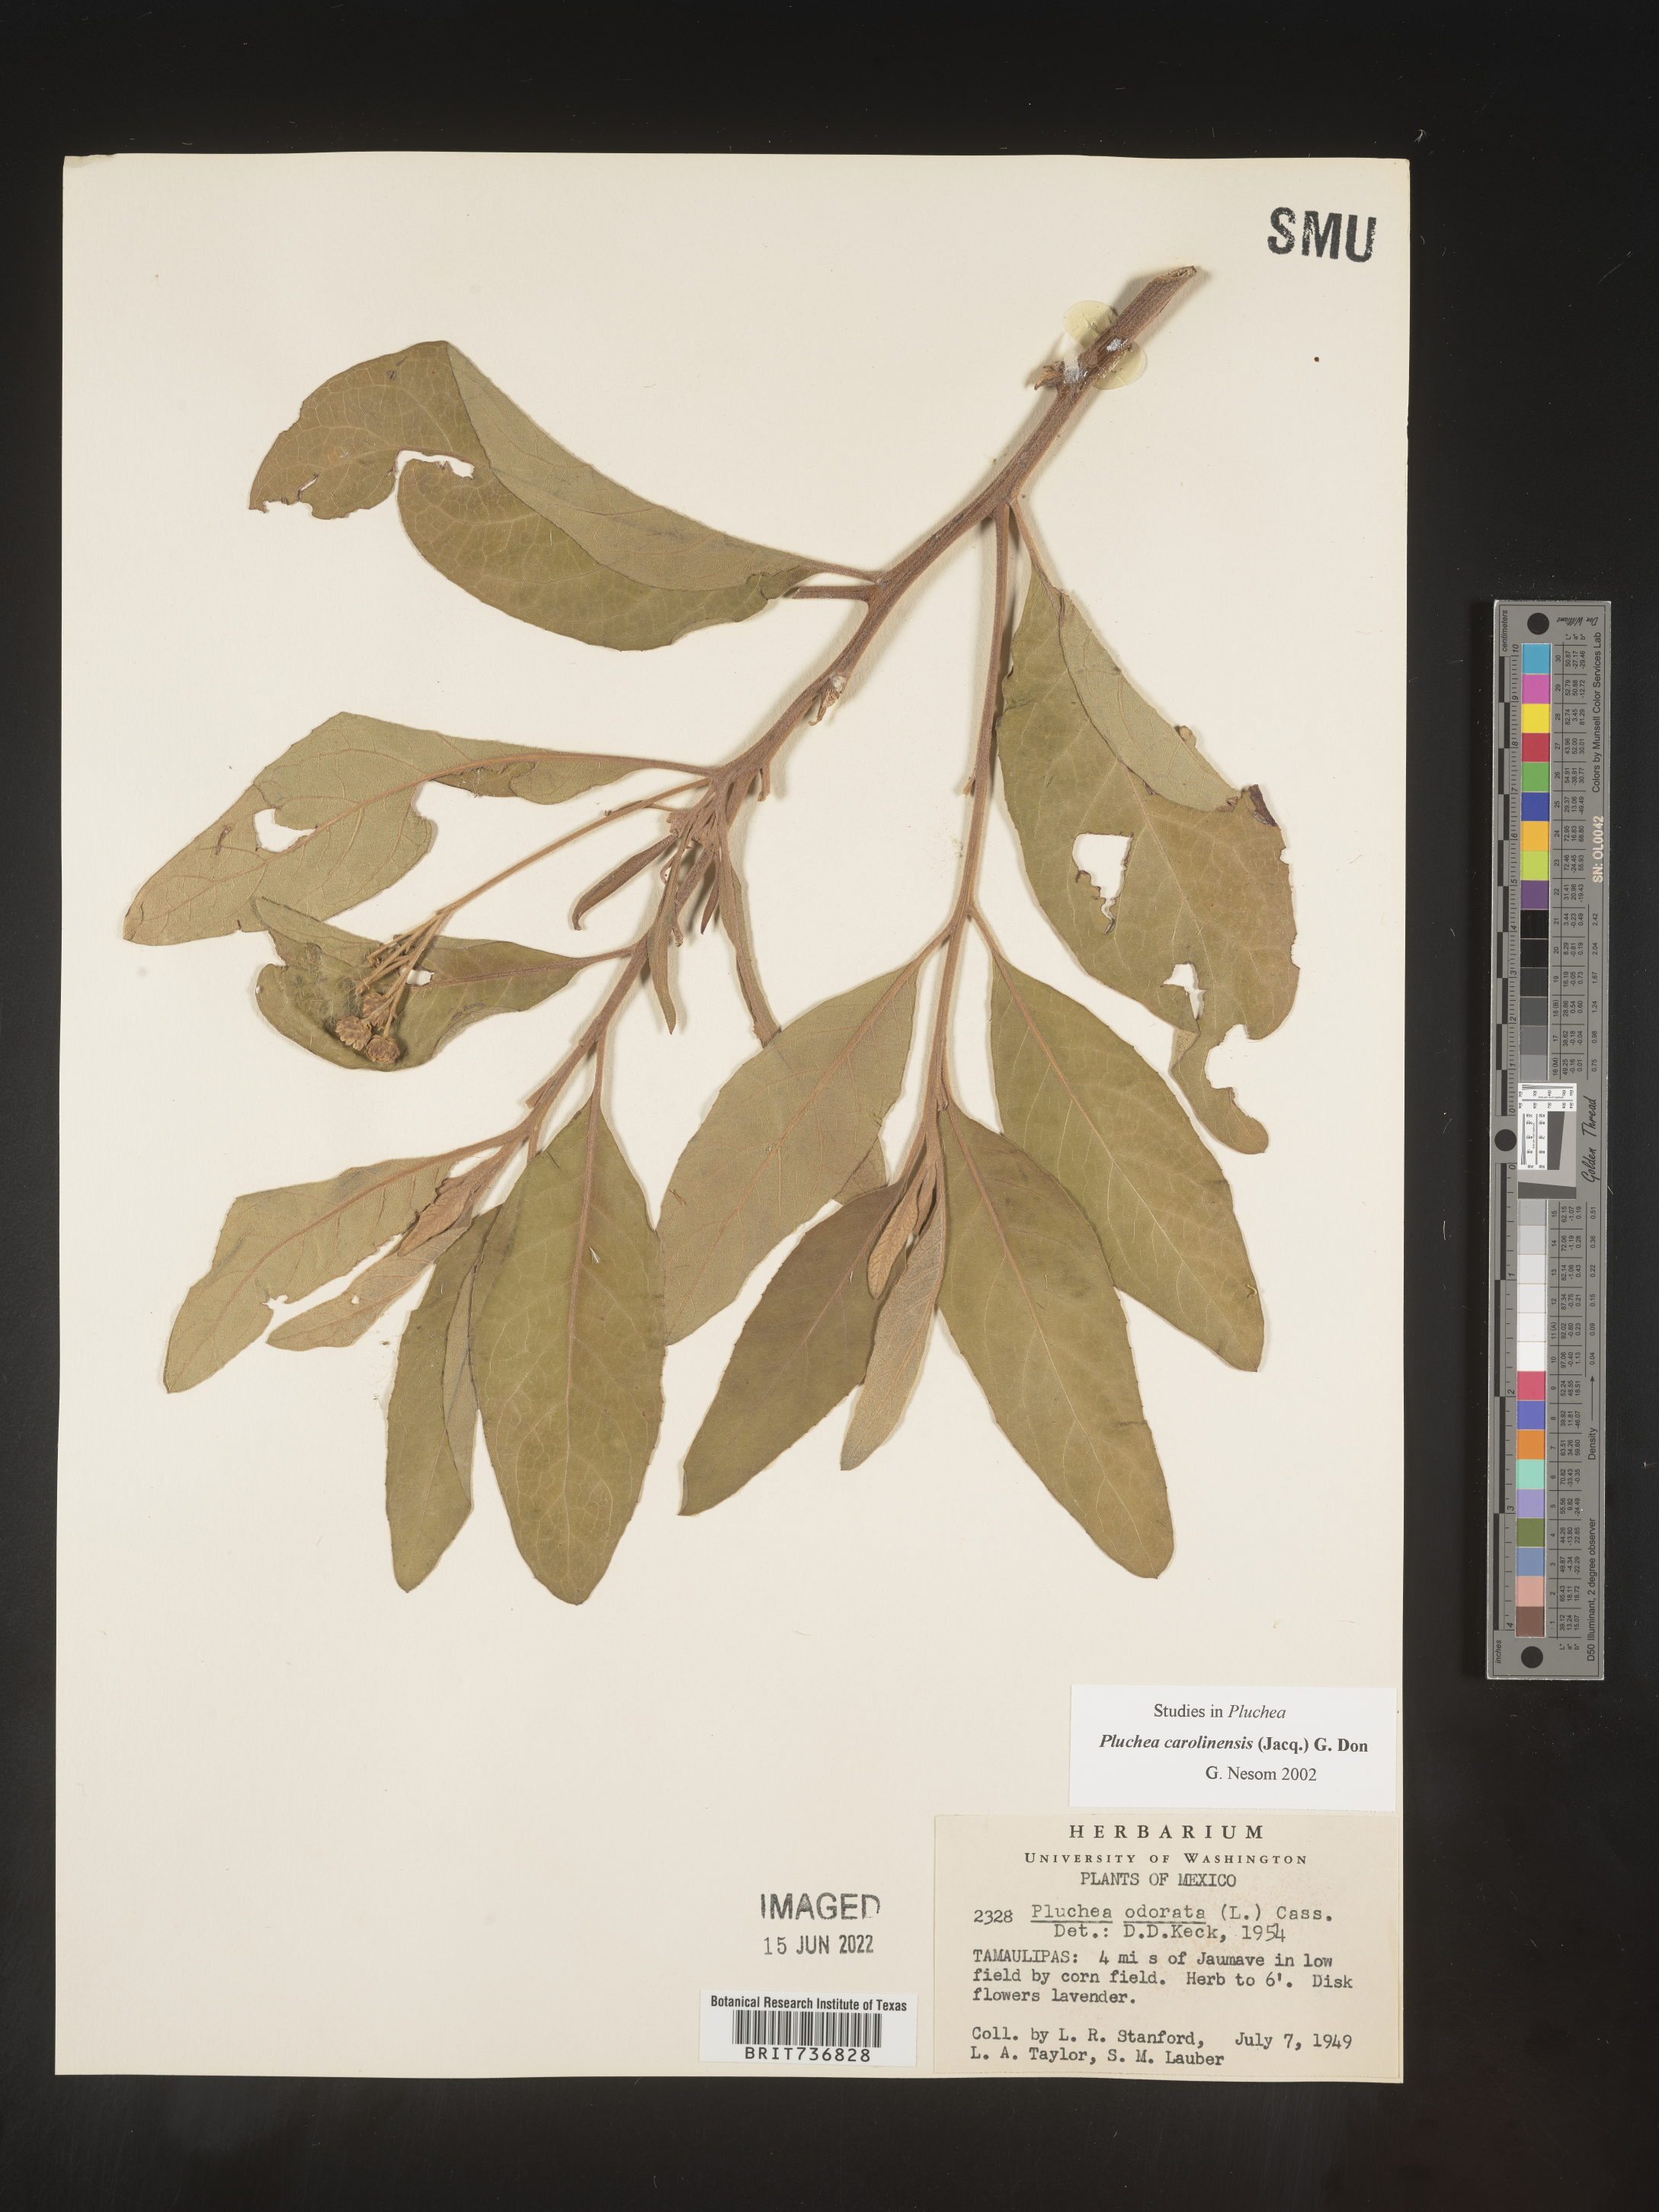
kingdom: Plantae
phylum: Tracheophyta
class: Magnoliopsida
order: Asterales
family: Asteraceae
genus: Pluchea
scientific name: Pluchea
